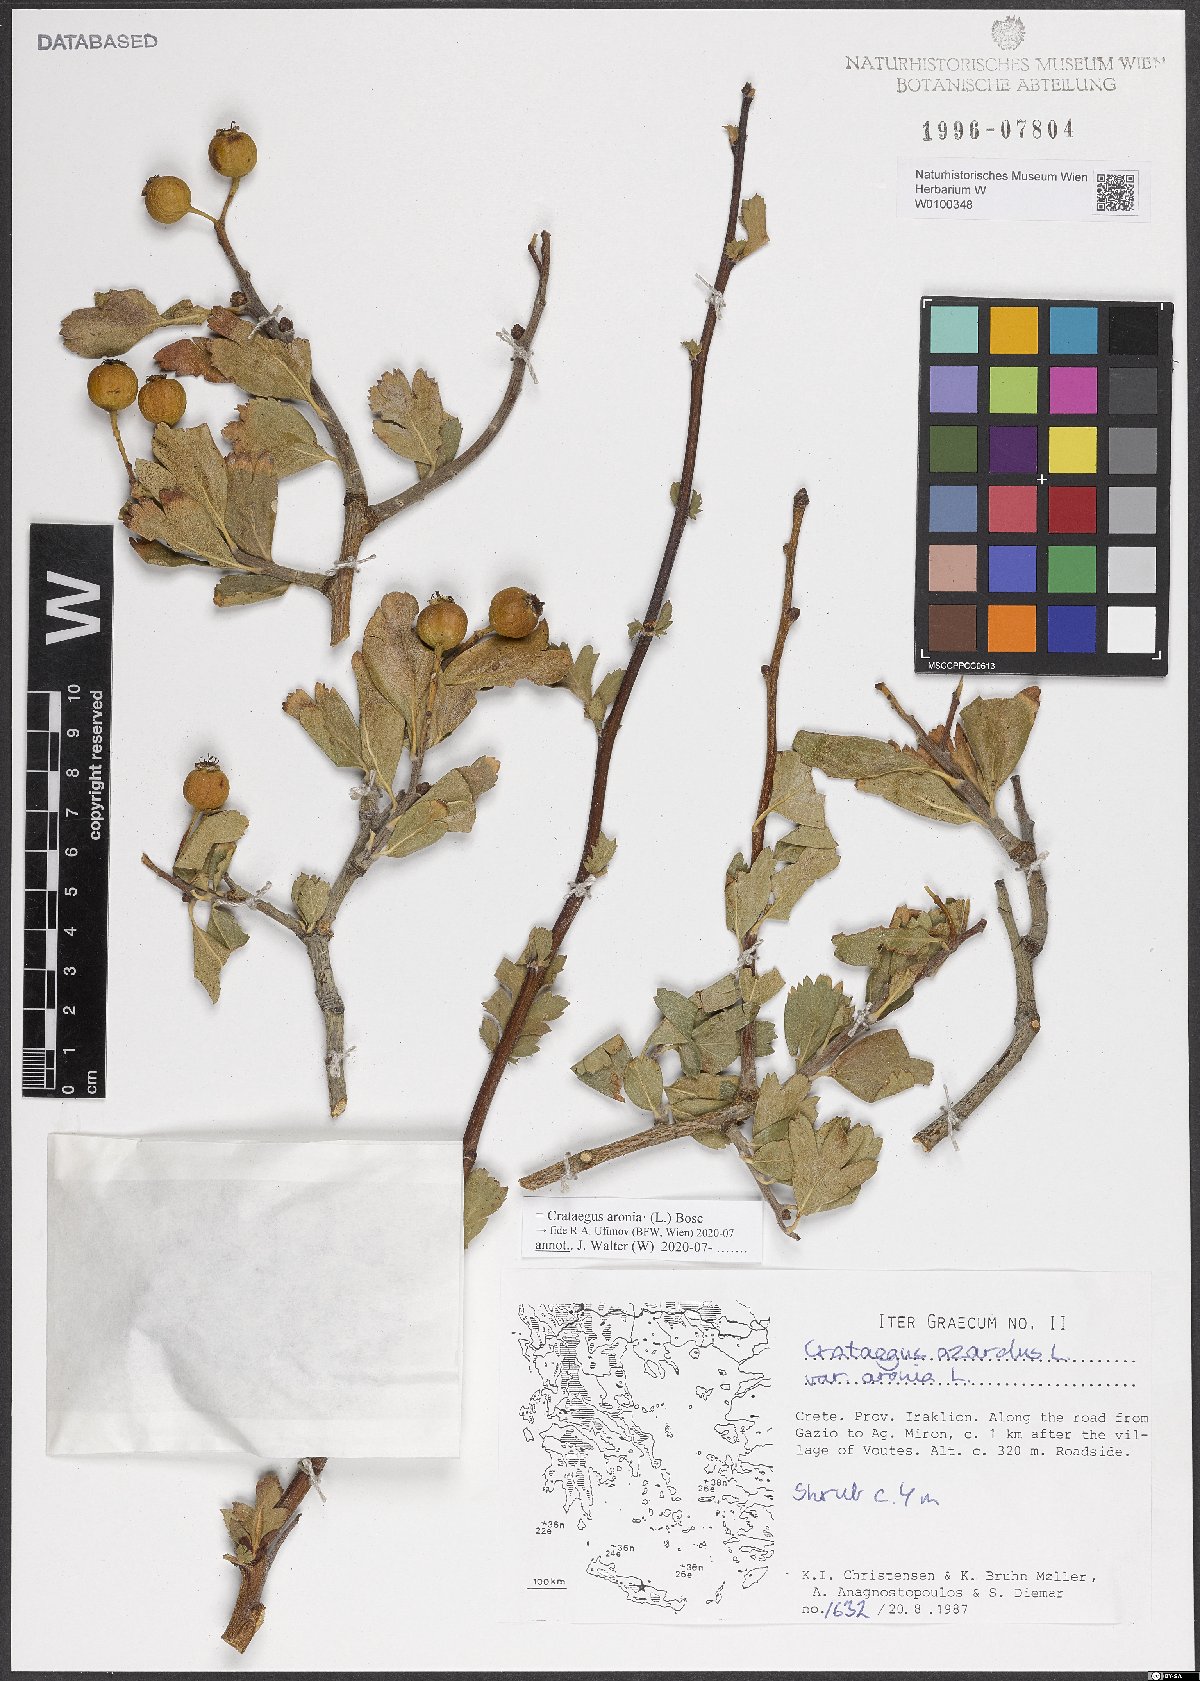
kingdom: Plantae
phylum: Tracheophyta
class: Magnoliopsida
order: Rosales
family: Rosaceae
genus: Crataegus
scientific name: Crataegus azarolus
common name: Azarole
